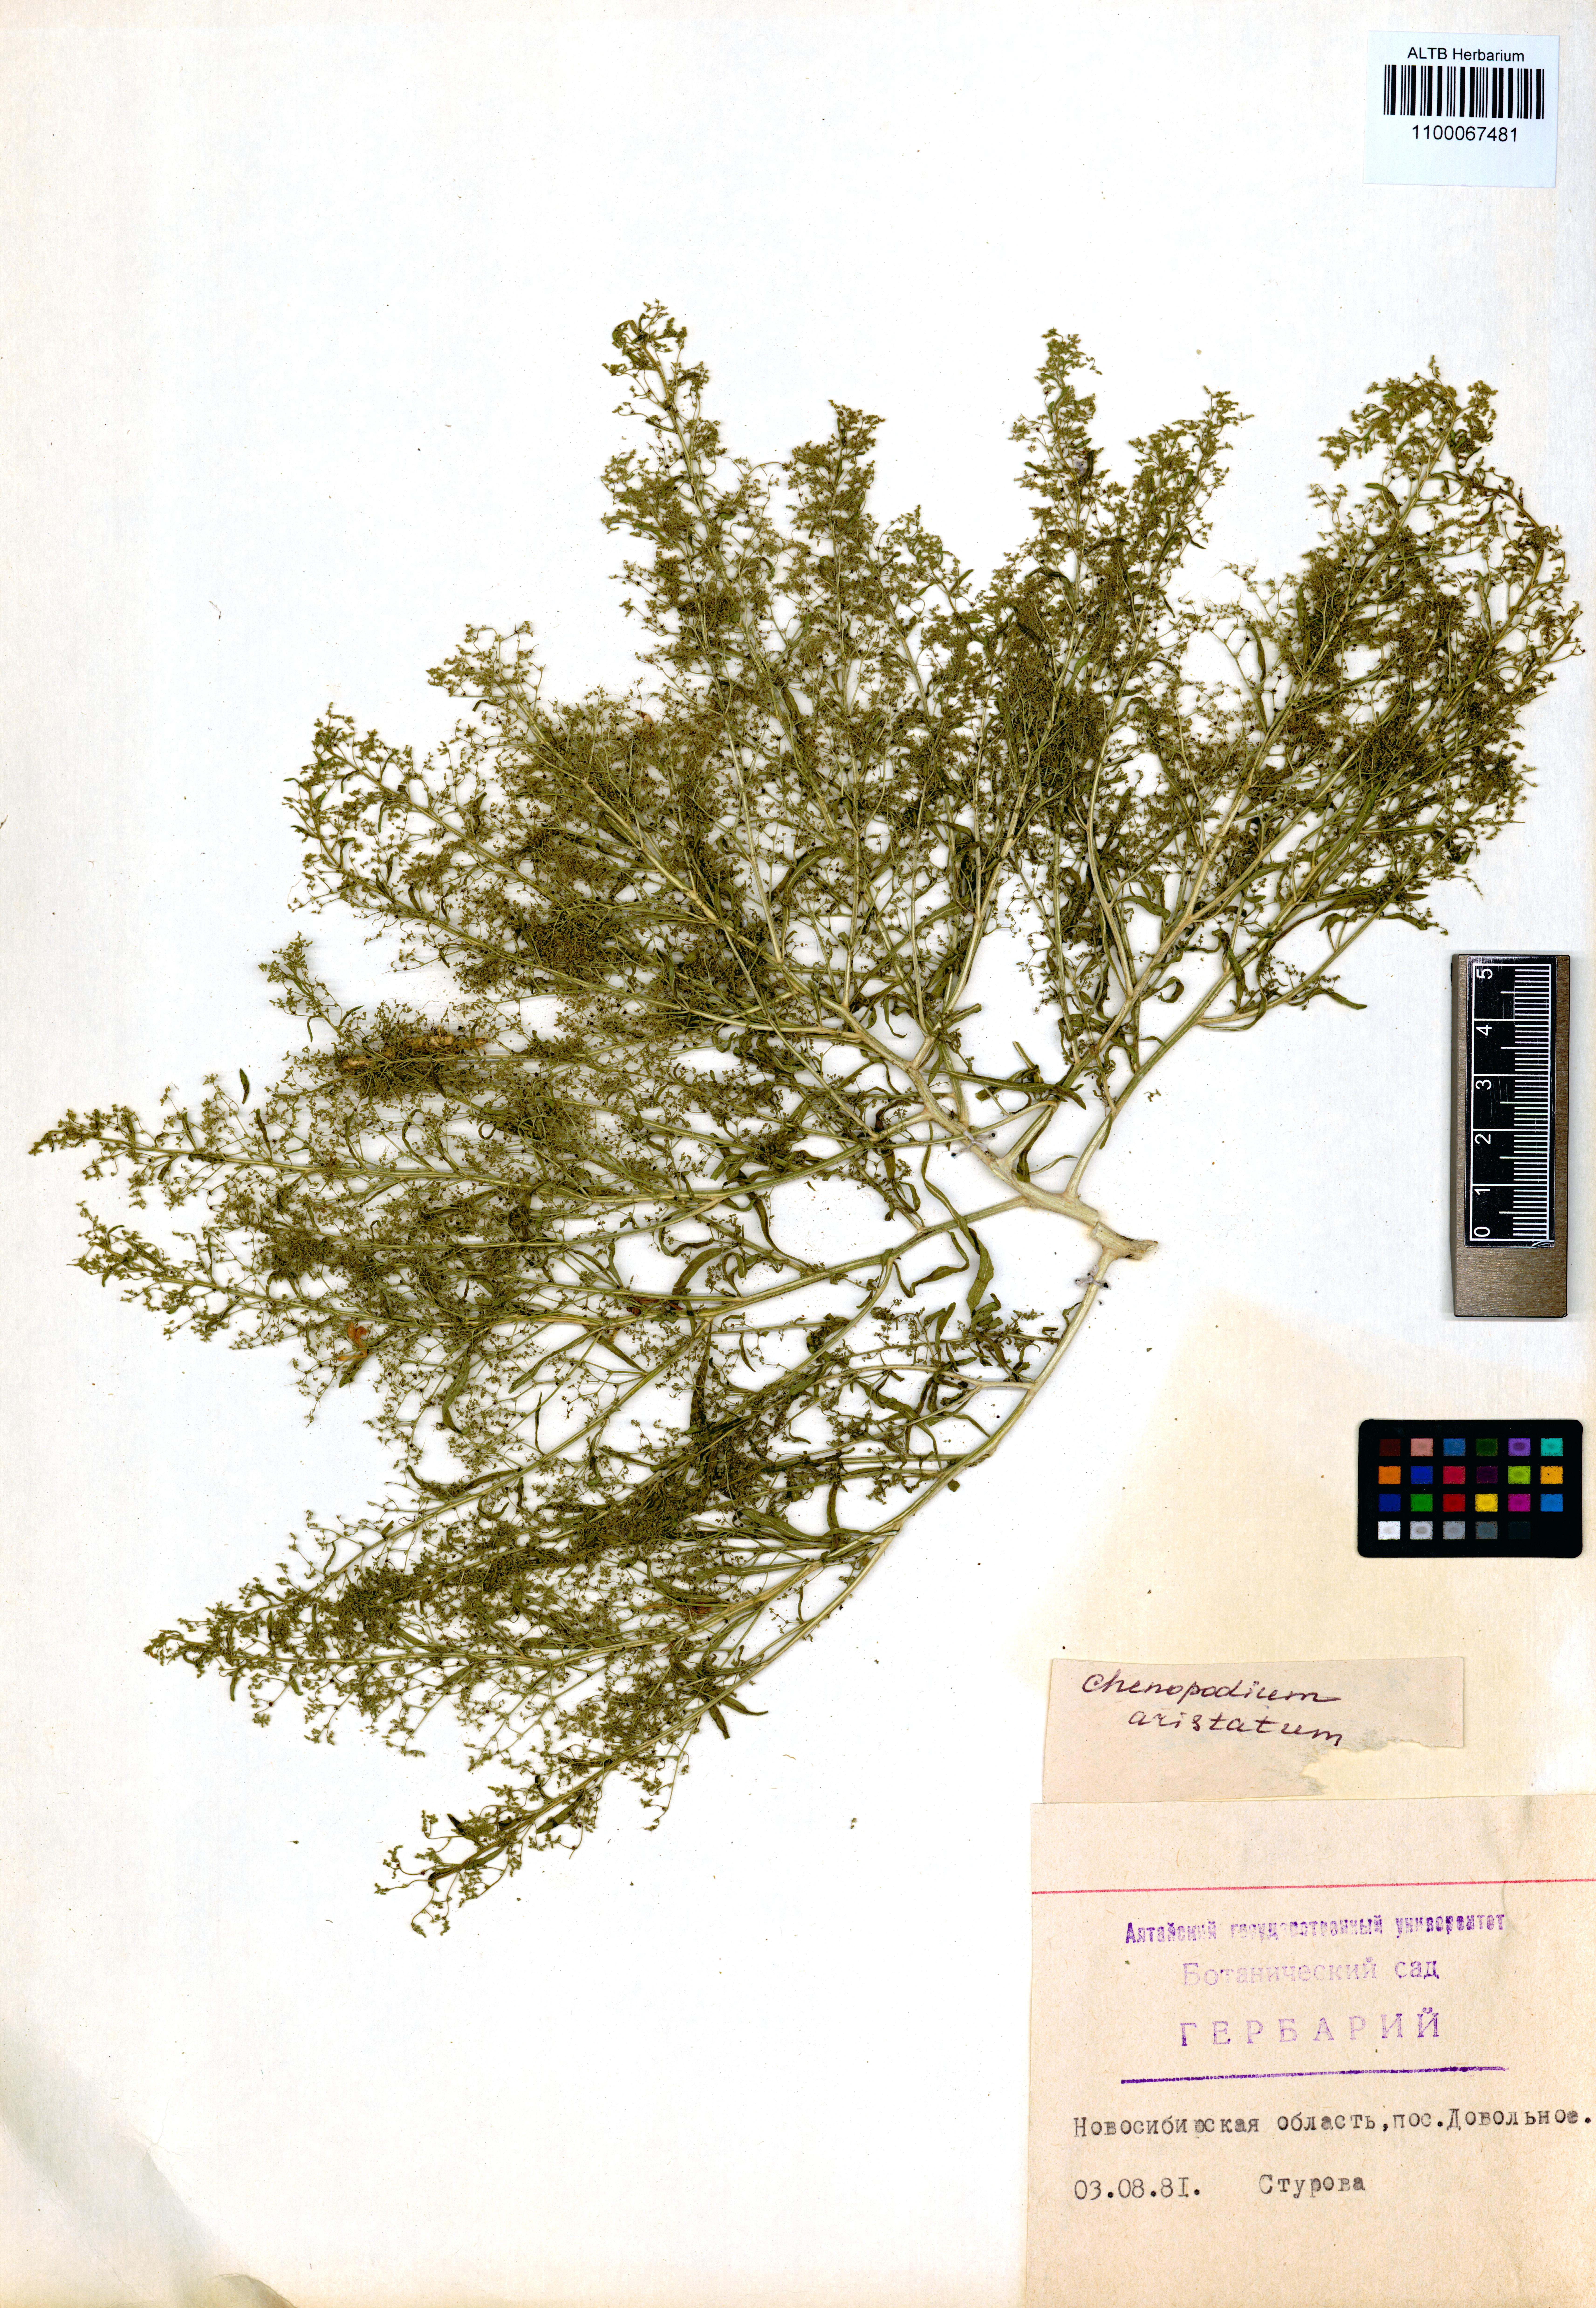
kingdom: Plantae
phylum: Tracheophyta
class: Magnoliopsida
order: Caryophyllales
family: Amaranthaceae
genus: Teloxys
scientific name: Teloxys aristata
